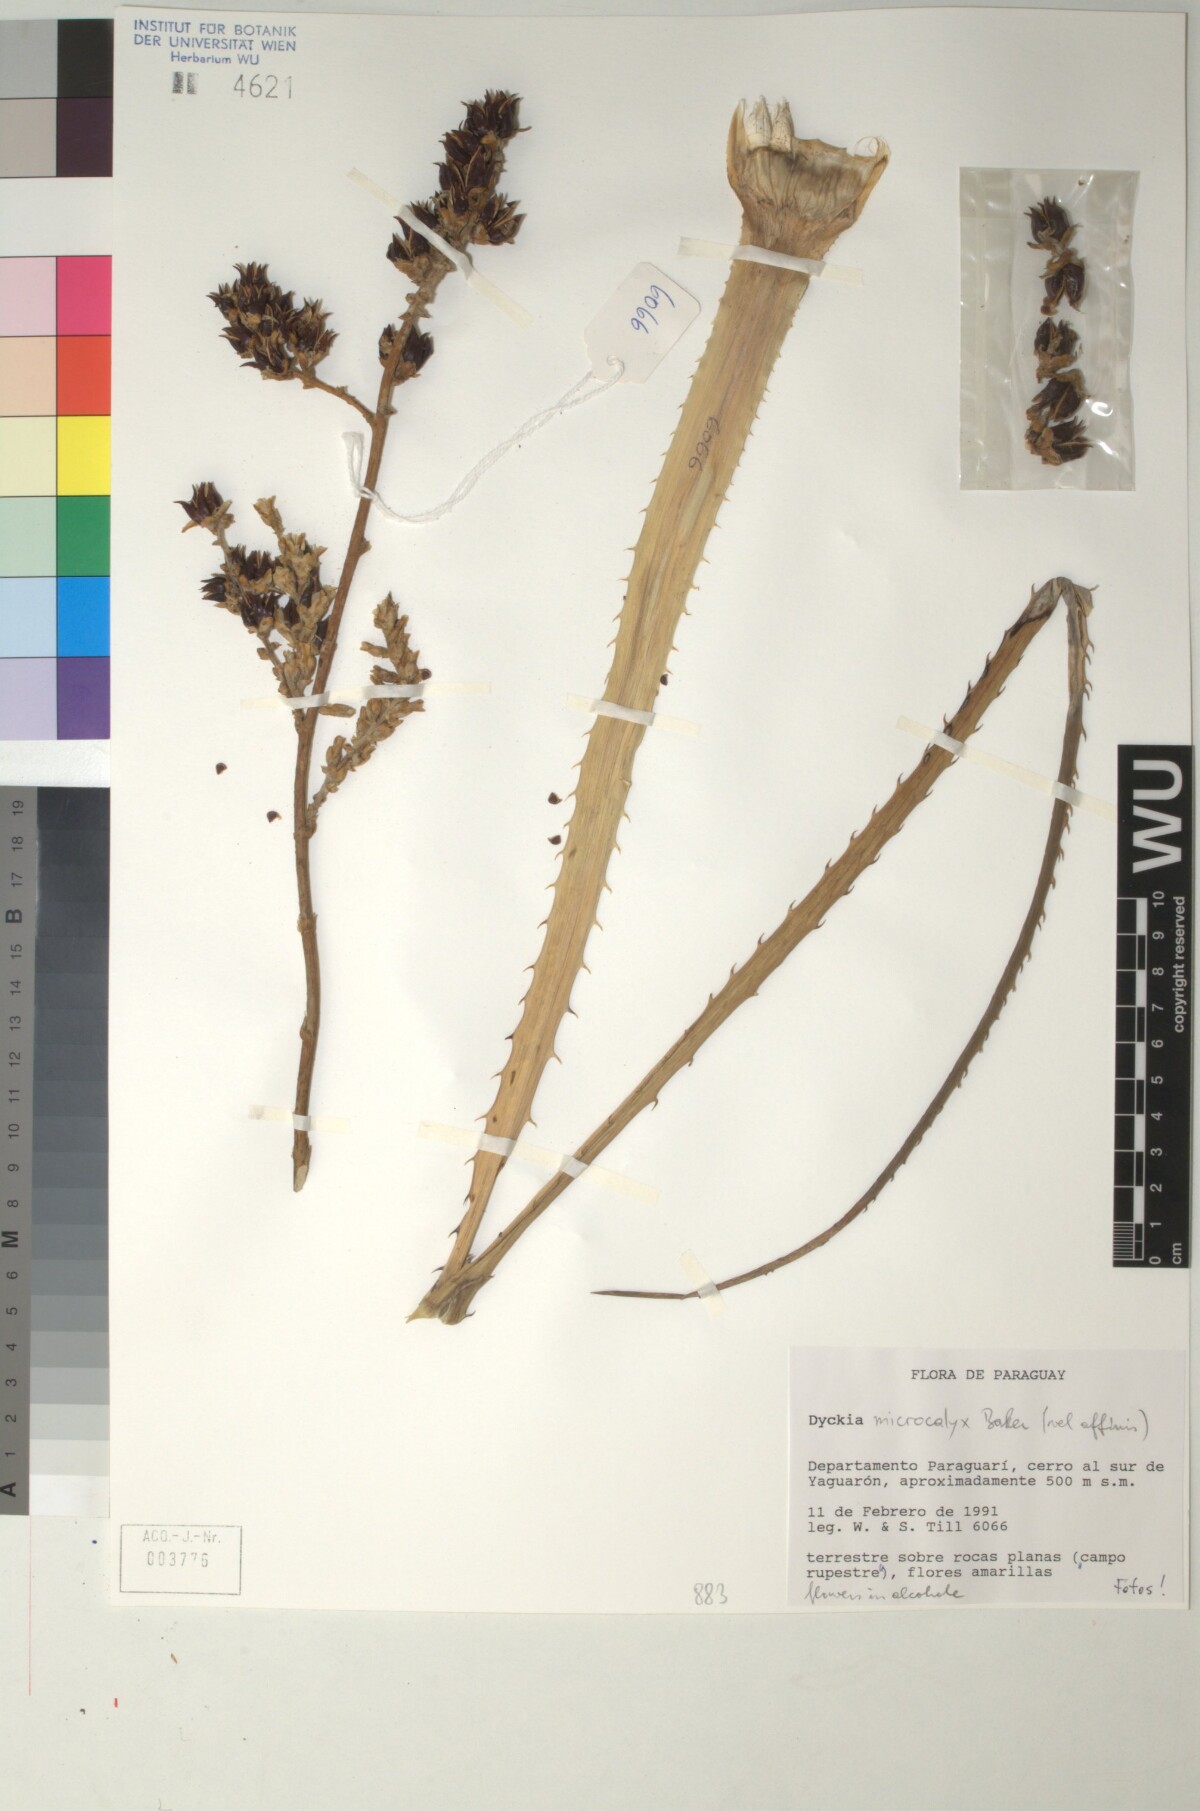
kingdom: Plantae
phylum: Tracheophyta
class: Liliopsida
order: Poales
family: Bromeliaceae
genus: Dyckia
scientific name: Dyckia microcalyx
